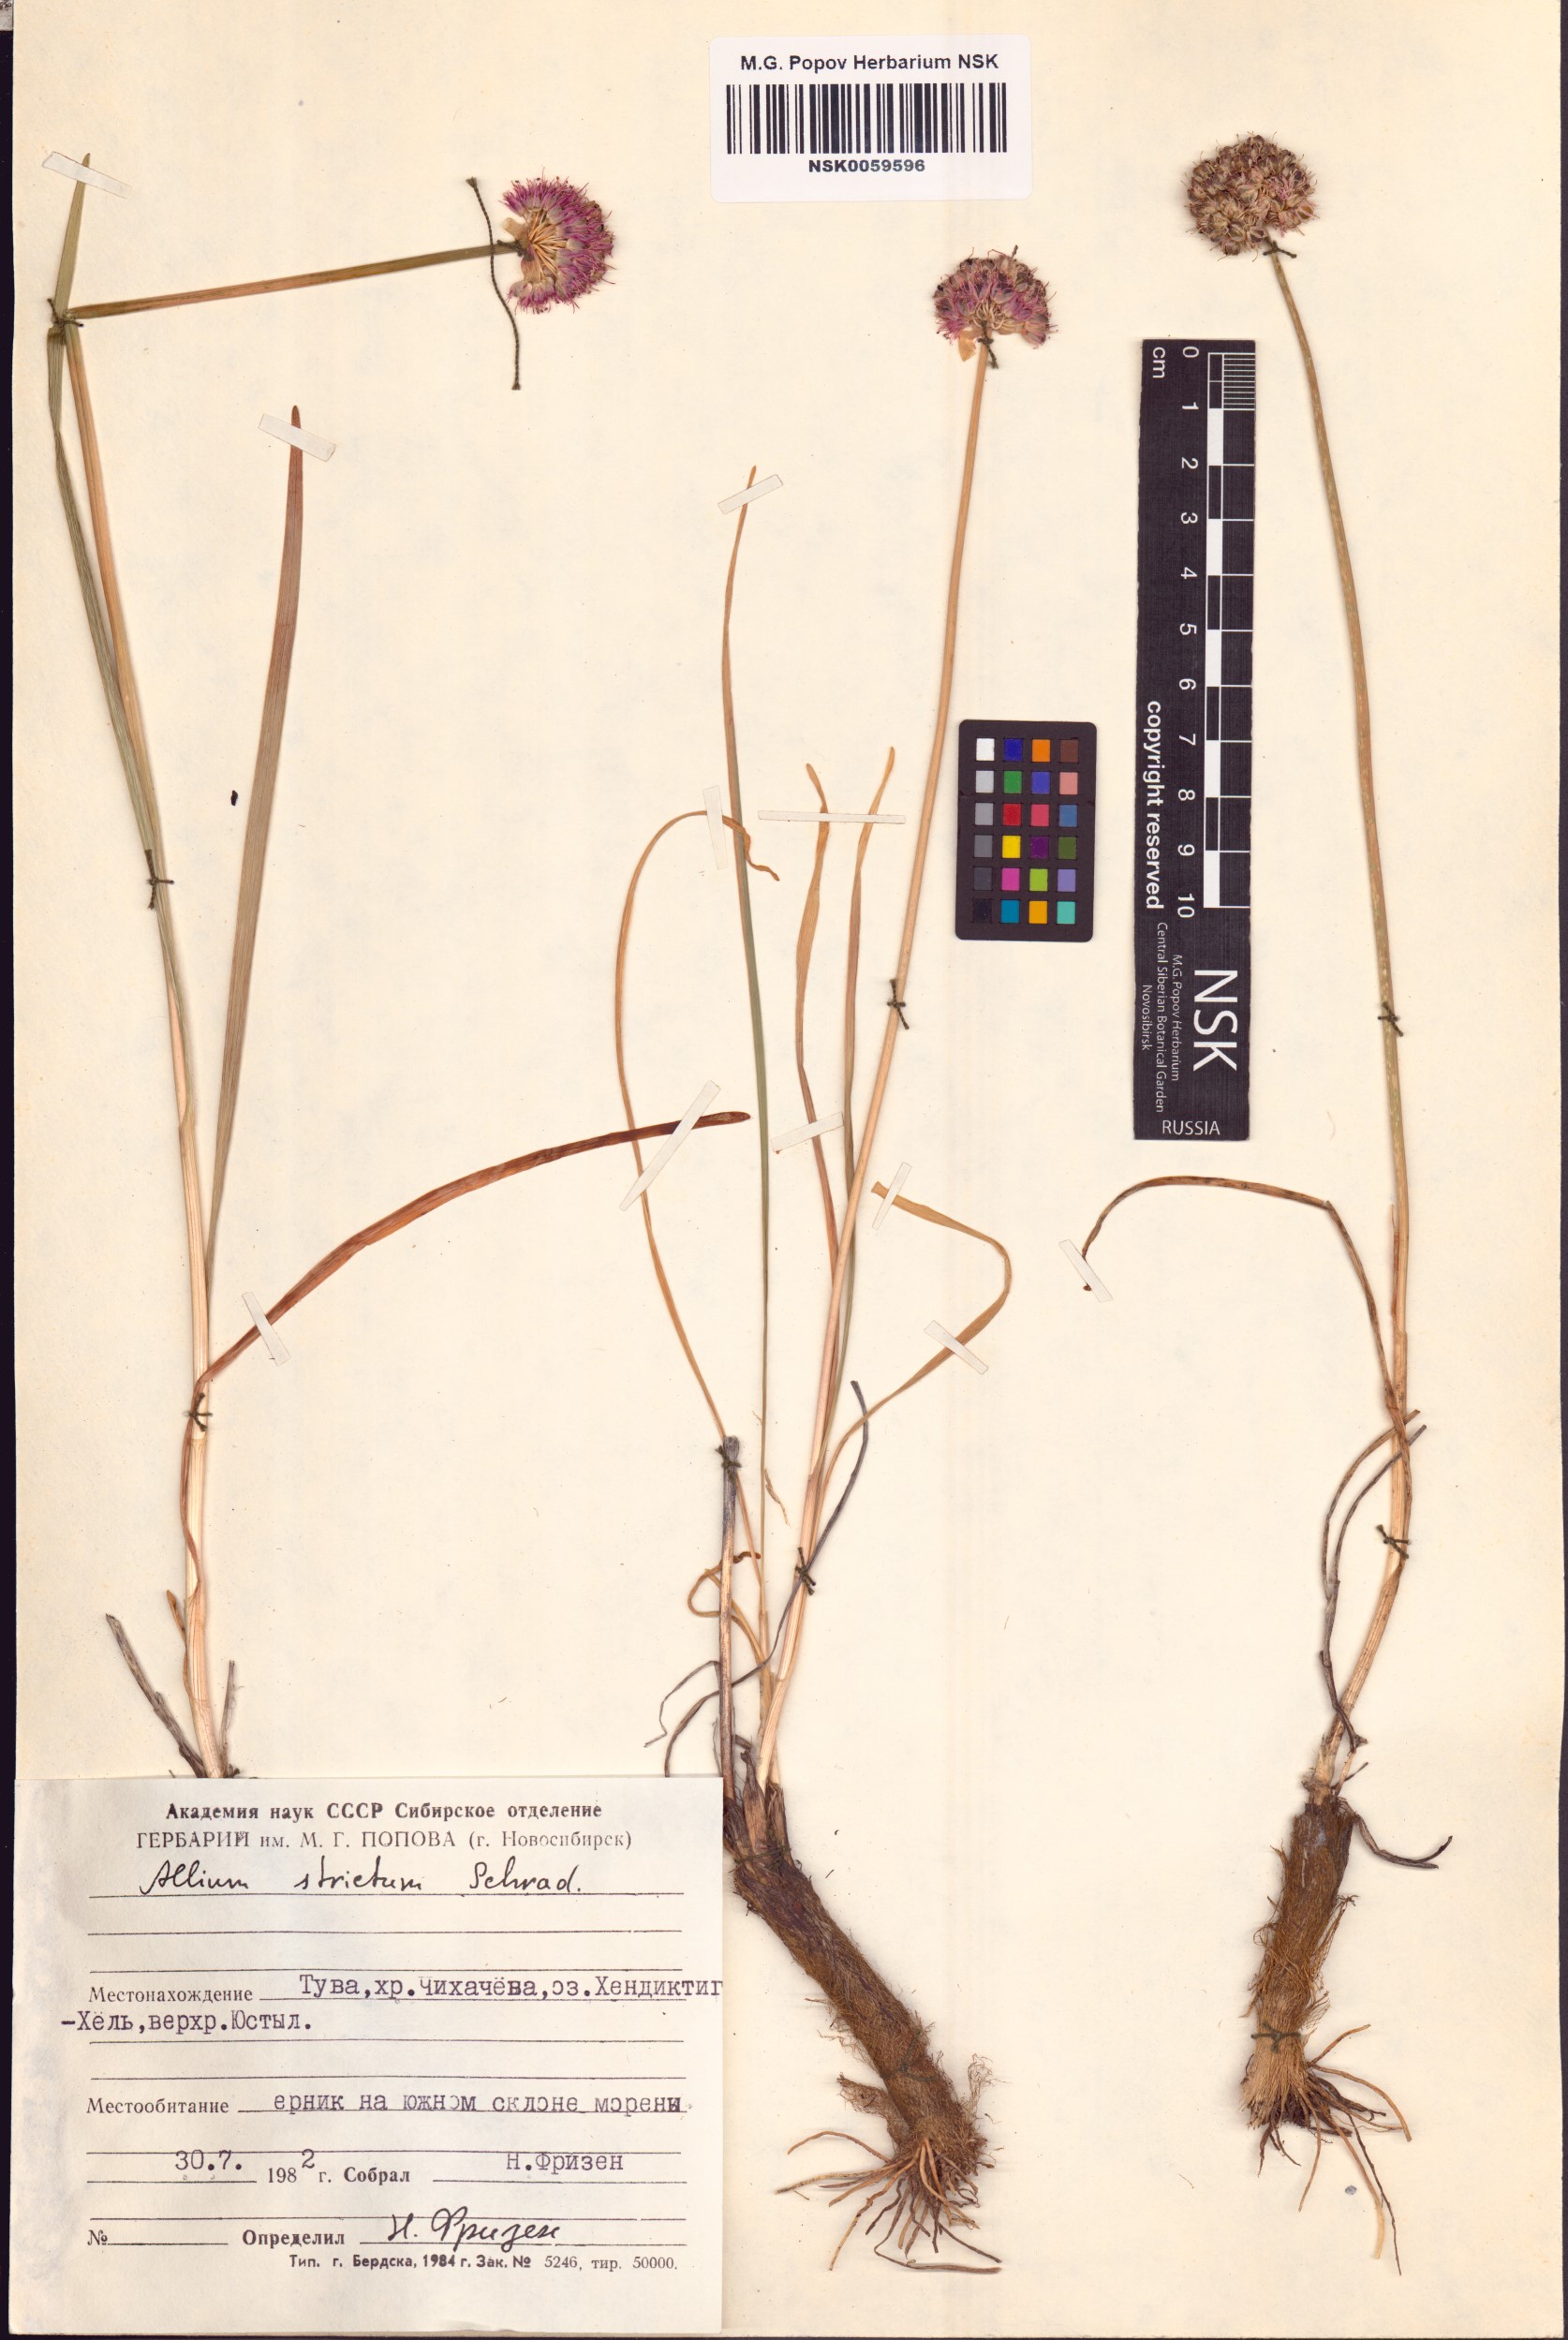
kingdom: Plantae
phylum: Tracheophyta
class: Liliopsida
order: Asparagales
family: Amaryllidaceae
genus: Allium
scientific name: Allium strictum
